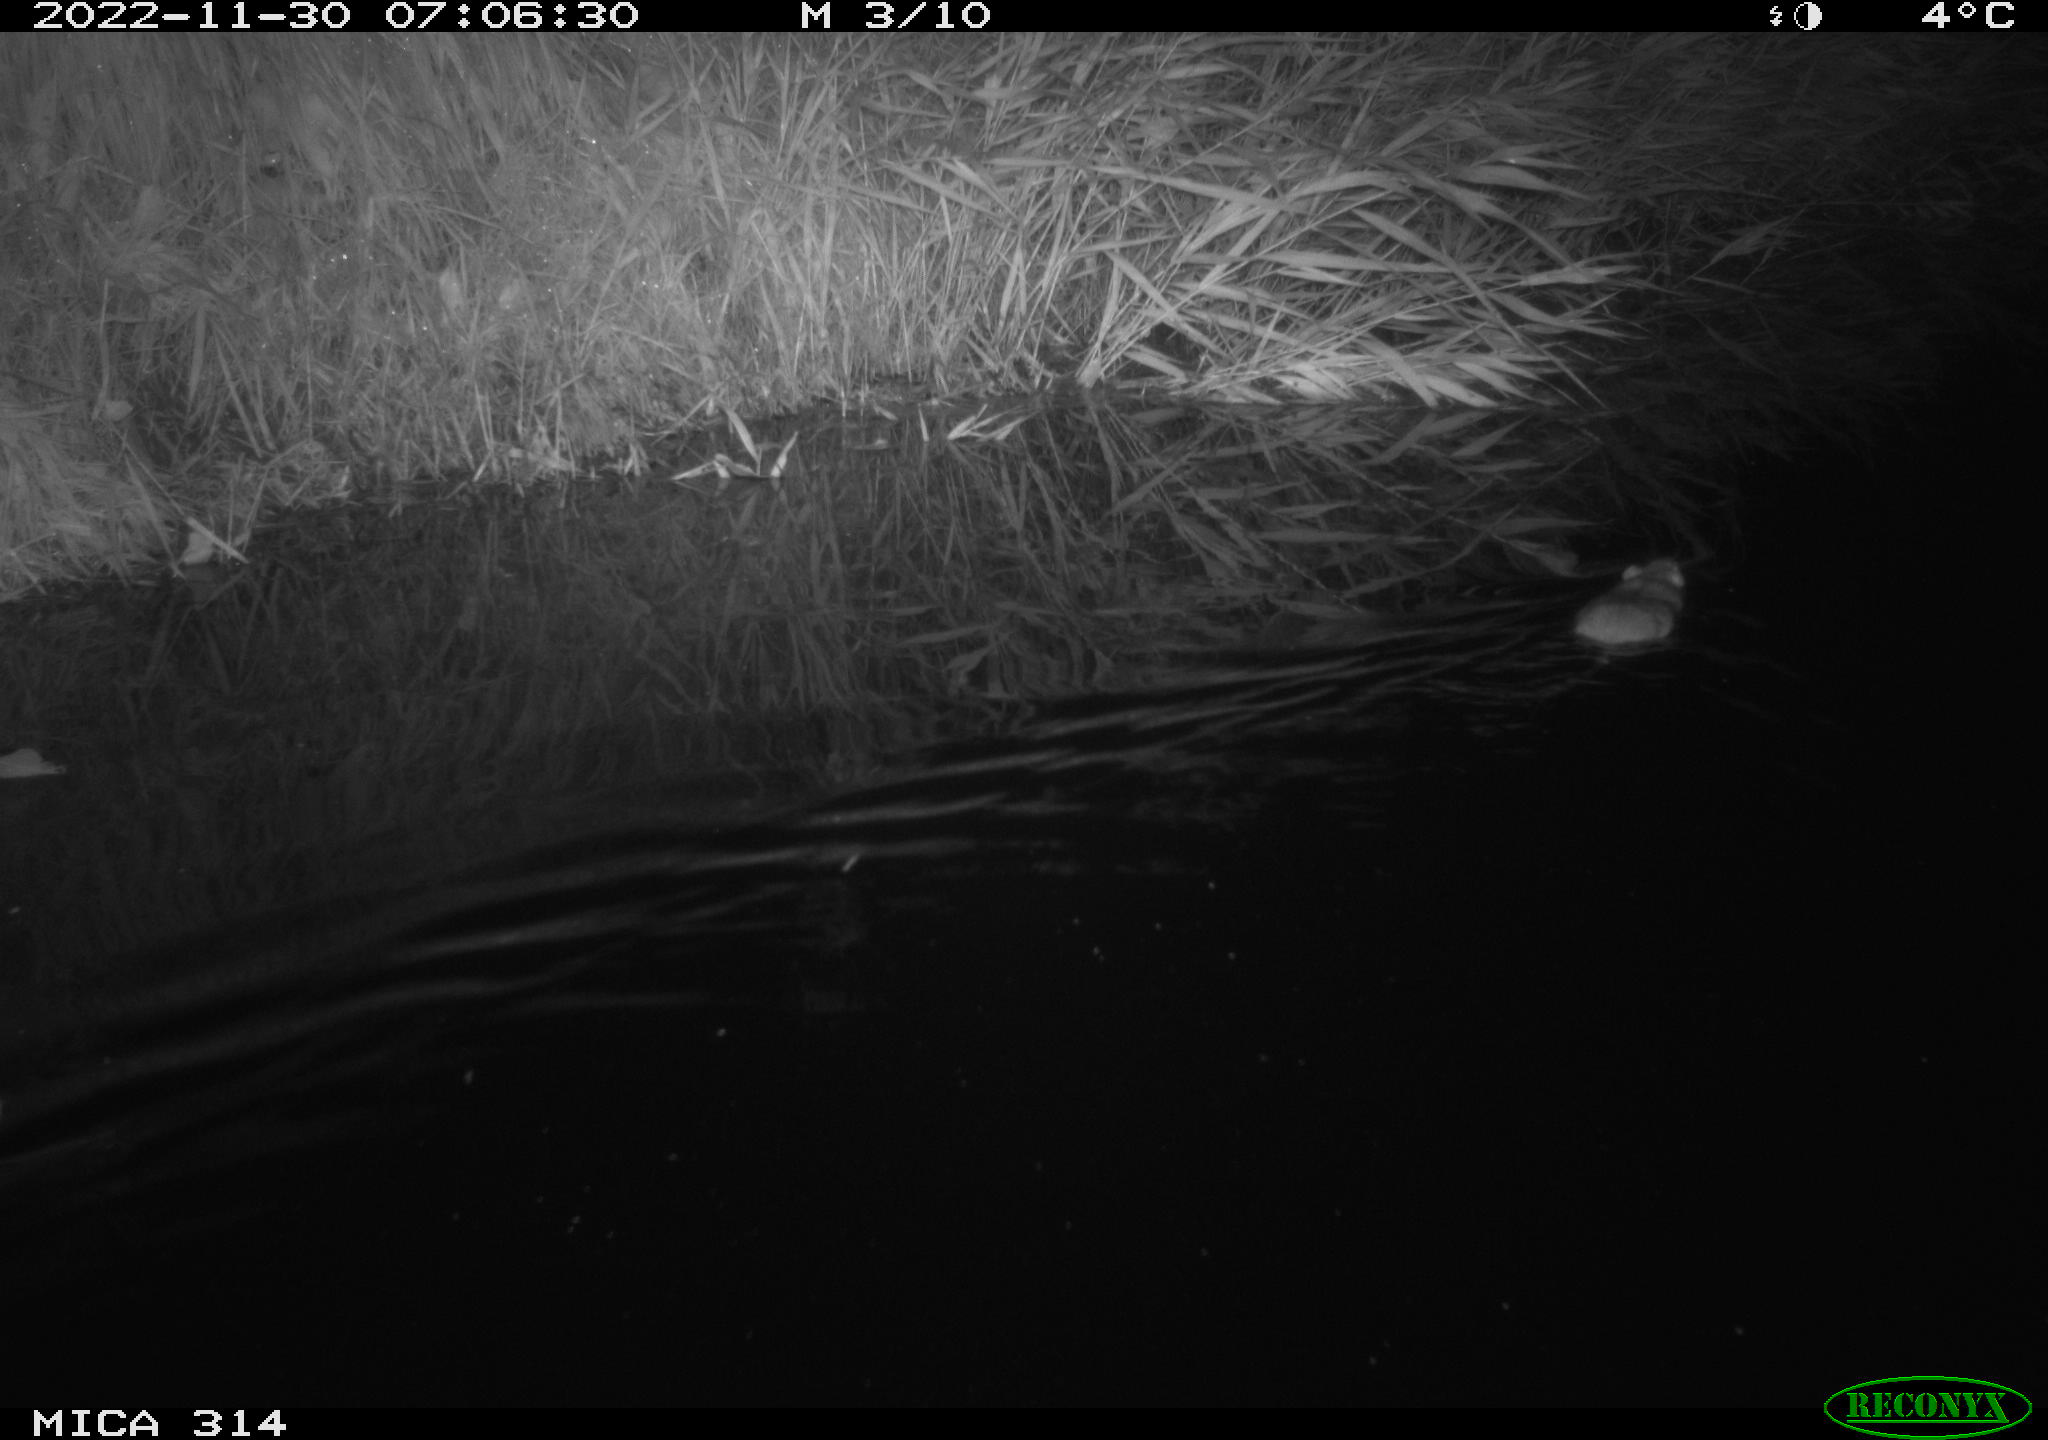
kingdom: Animalia
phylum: Chordata
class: Mammalia
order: Rodentia
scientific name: Rodentia
